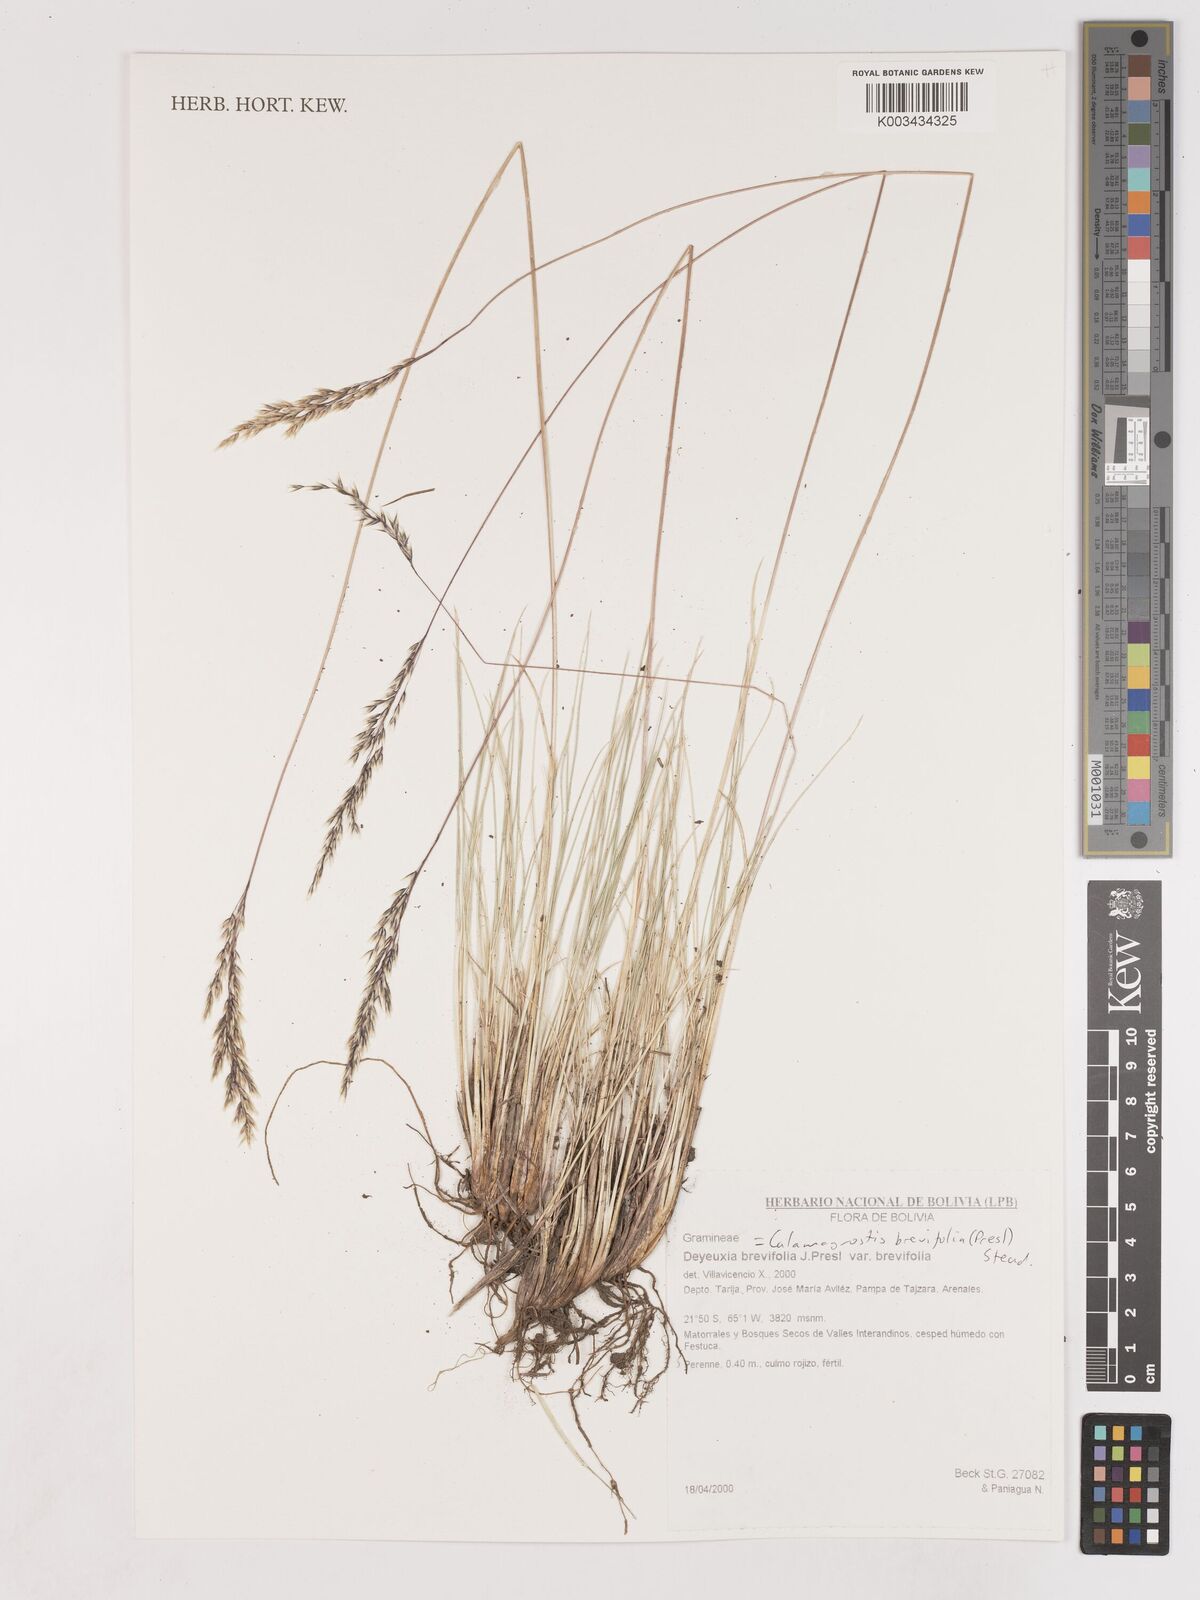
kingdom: Plantae
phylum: Tracheophyta
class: Liliopsida
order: Poales
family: Poaceae
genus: Cinnagrostis
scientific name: Cinnagrostis brevifolia
